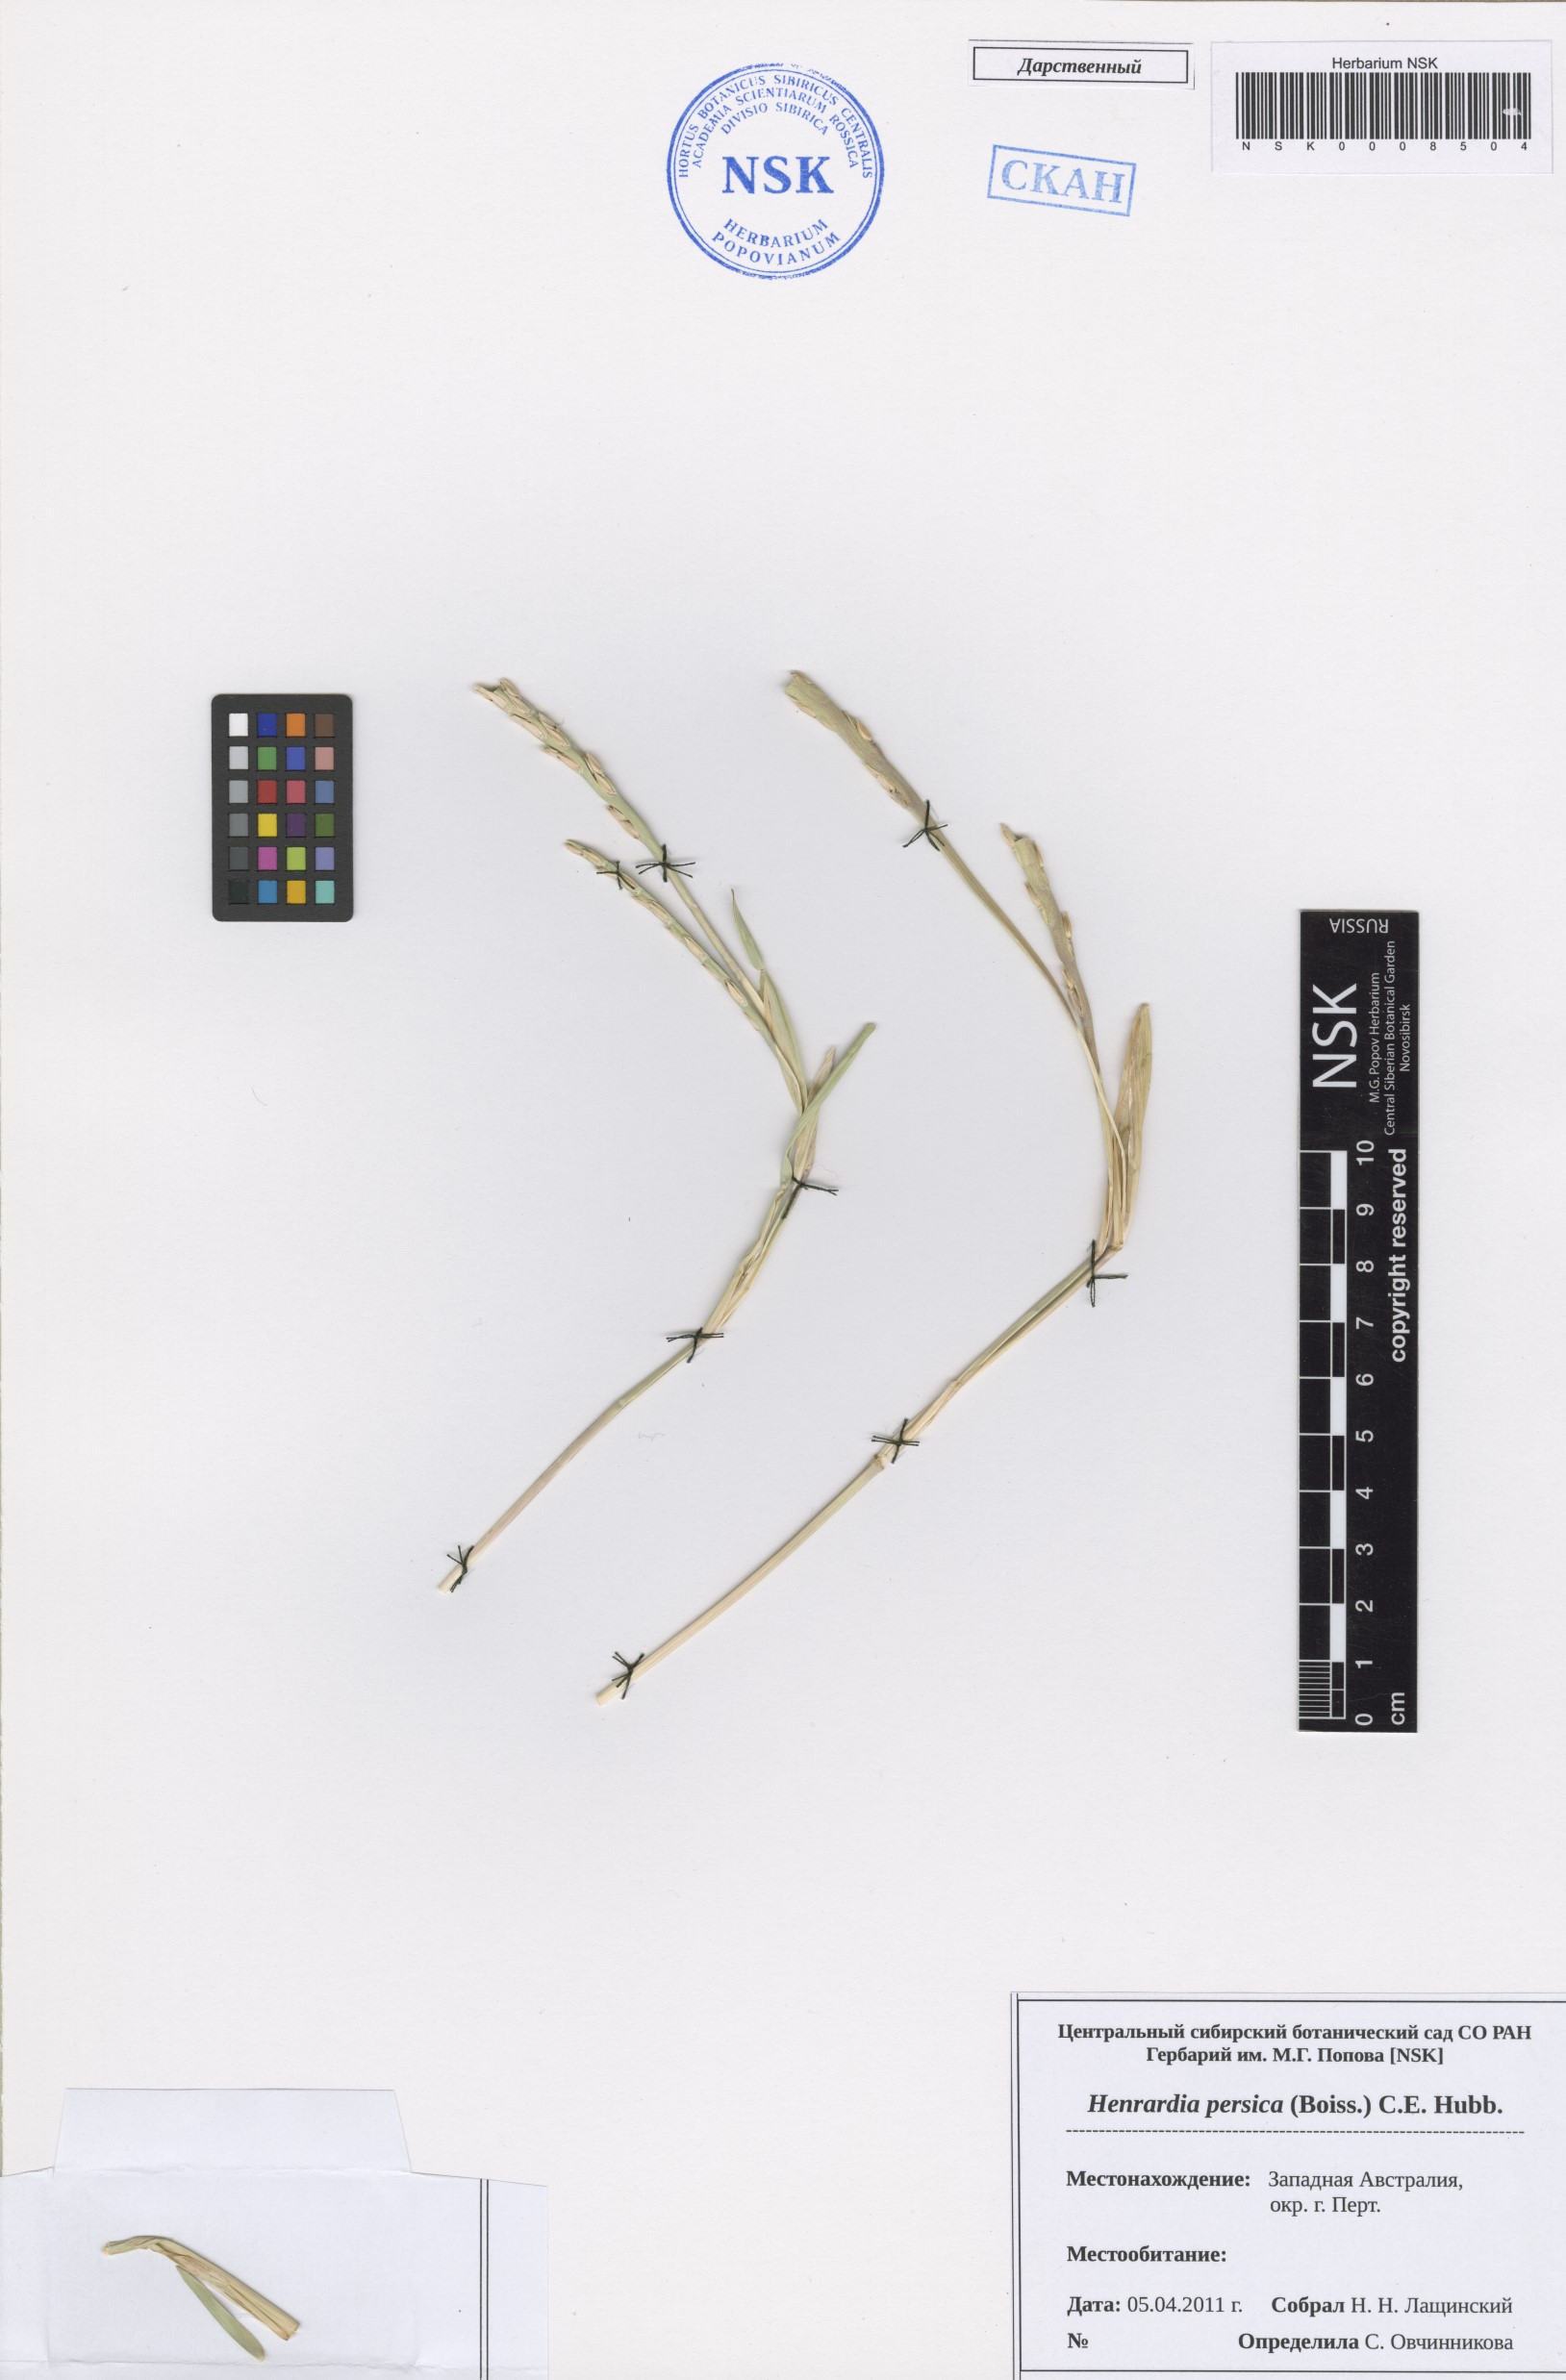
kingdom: Plantae
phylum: Tracheophyta
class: Liliopsida
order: Poales
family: Poaceae
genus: Henrardia
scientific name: Henrardia persica
